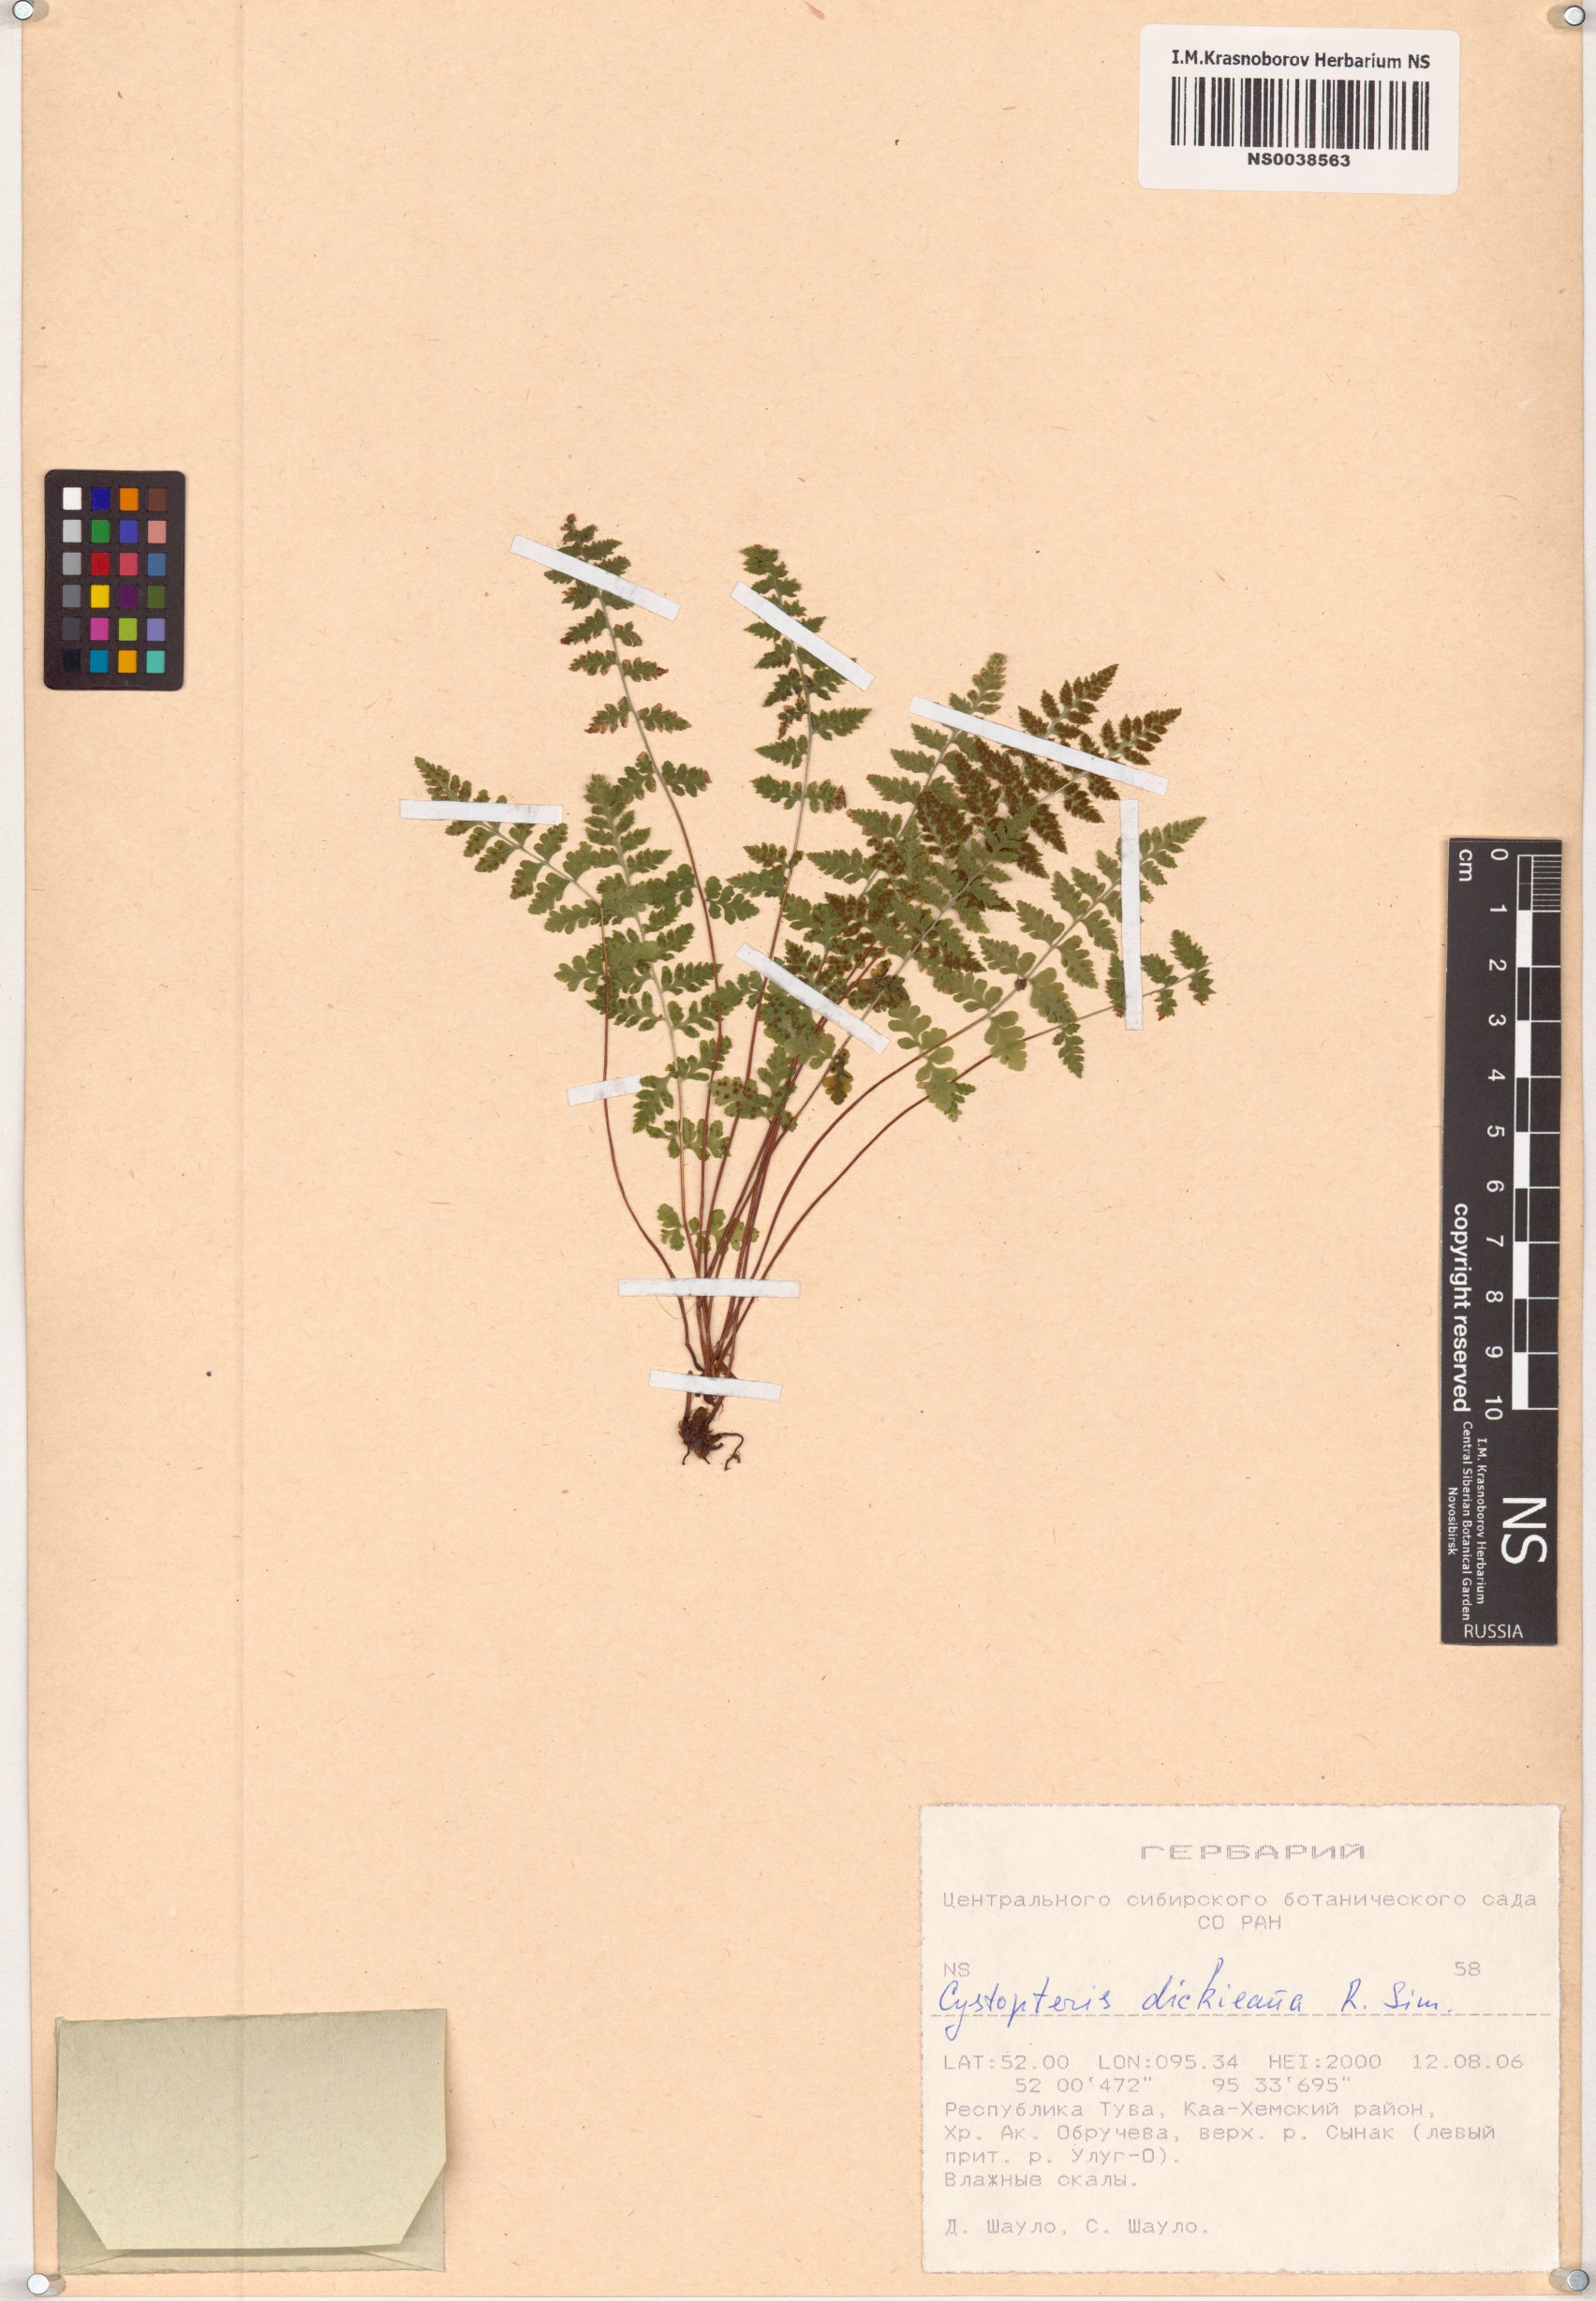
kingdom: Plantae
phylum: Tracheophyta
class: Polypodiopsida
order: Polypodiales
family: Cystopteridaceae
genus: Cystopteris
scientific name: Cystopteris dickieana
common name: Dickie's bladder-fern
